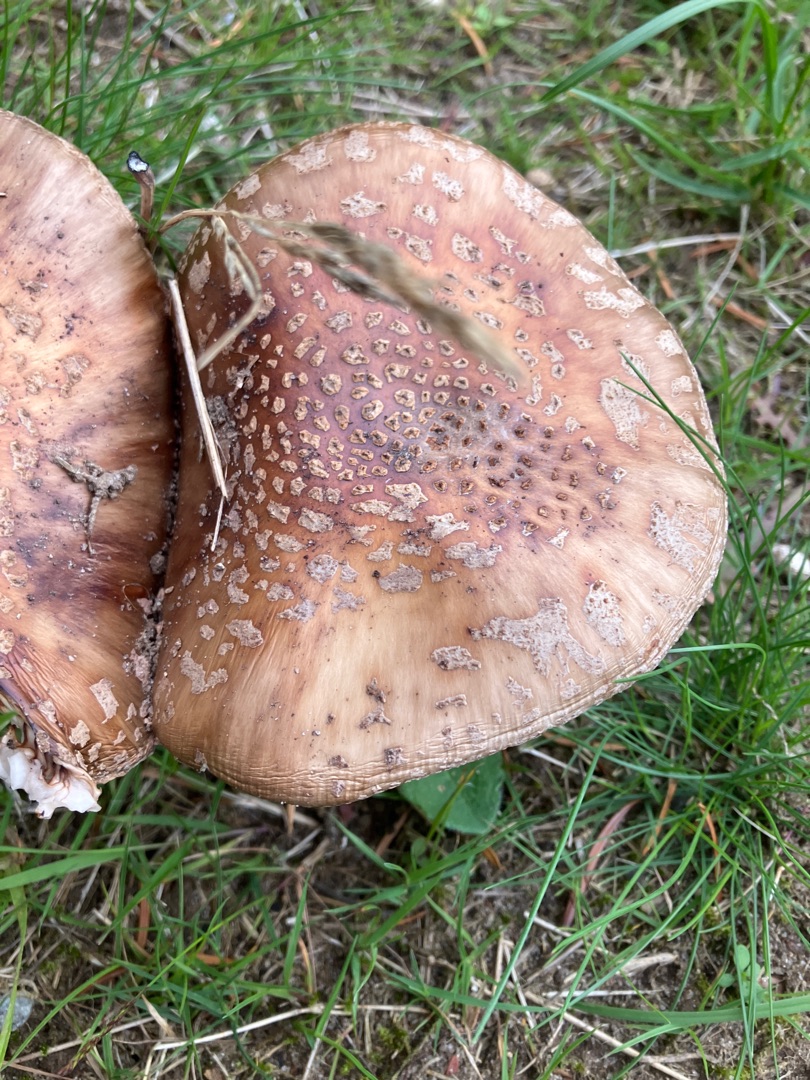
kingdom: Fungi
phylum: Basidiomycota
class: Agaricomycetes
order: Agaricales
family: Amanitaceae
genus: Amanita
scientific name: Amanita rubescens
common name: Rødmende fluesvamp
